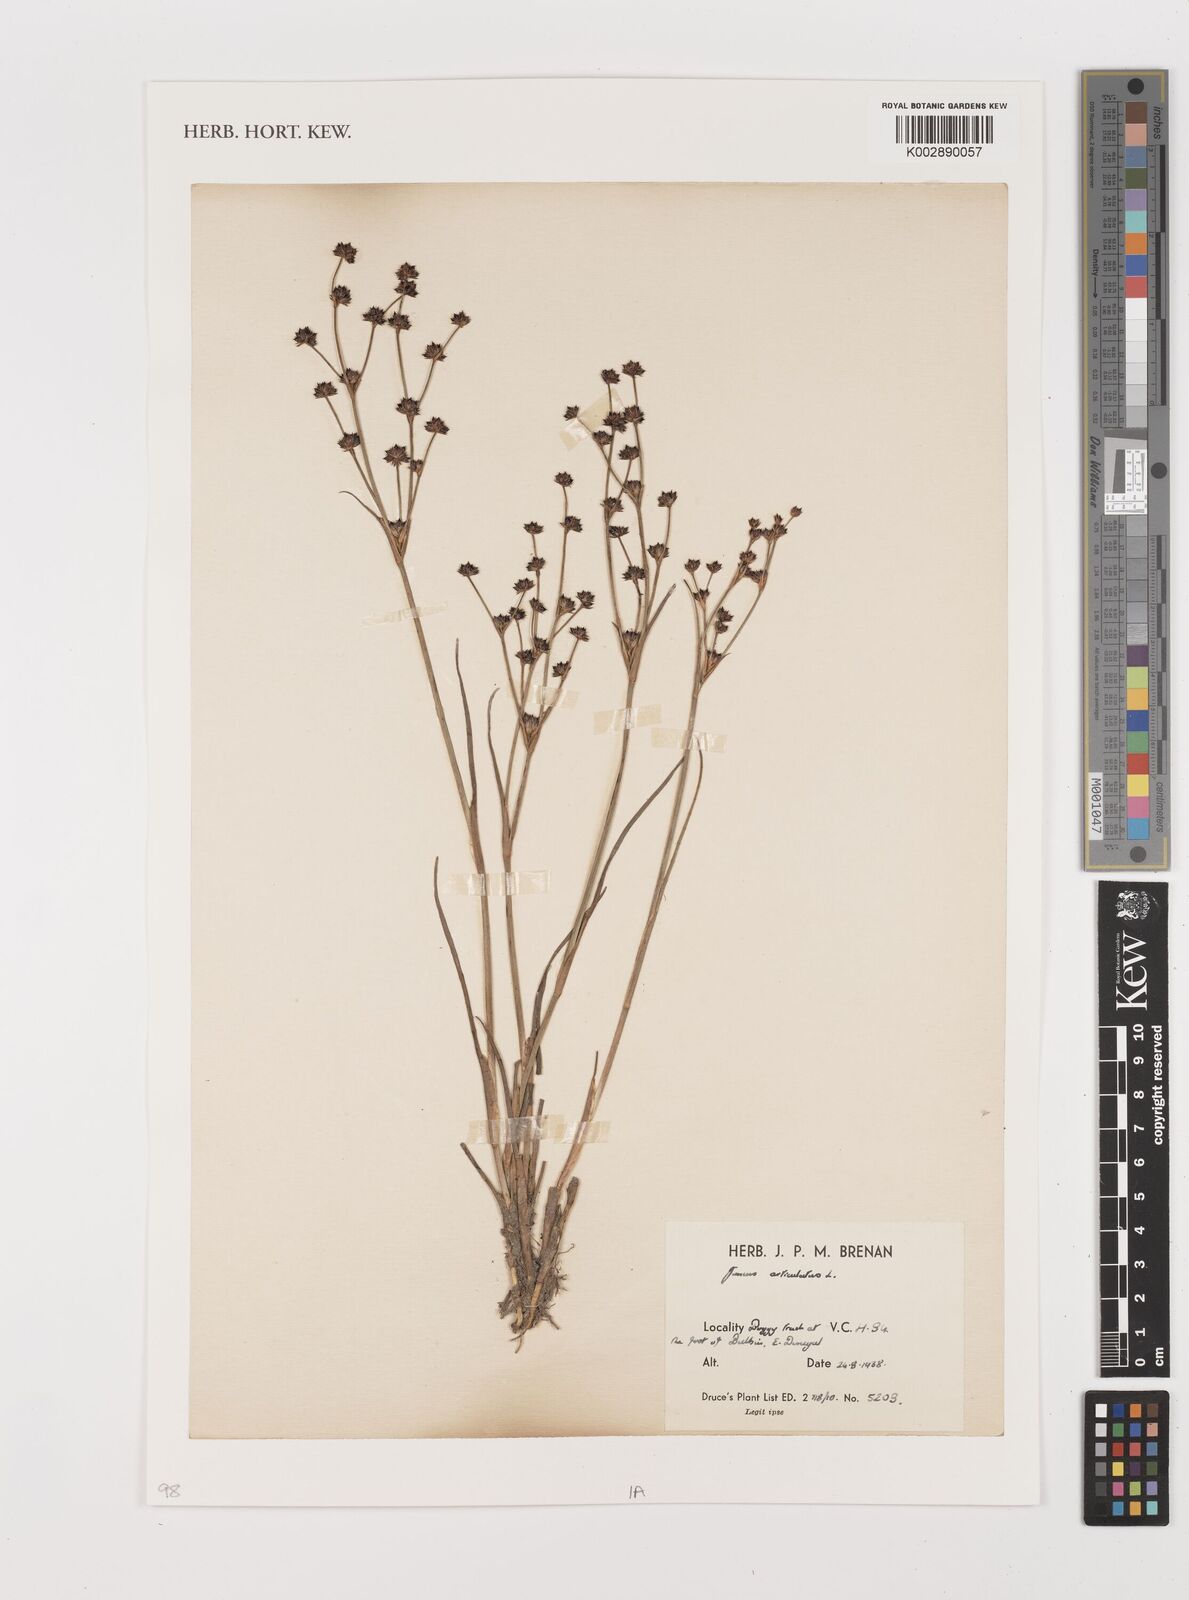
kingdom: Plantae
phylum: Tracheophyta
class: Liliopsida
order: Poales
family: Juncaceae
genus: Juncus
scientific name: Juncus articulatus
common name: Jointed rush
